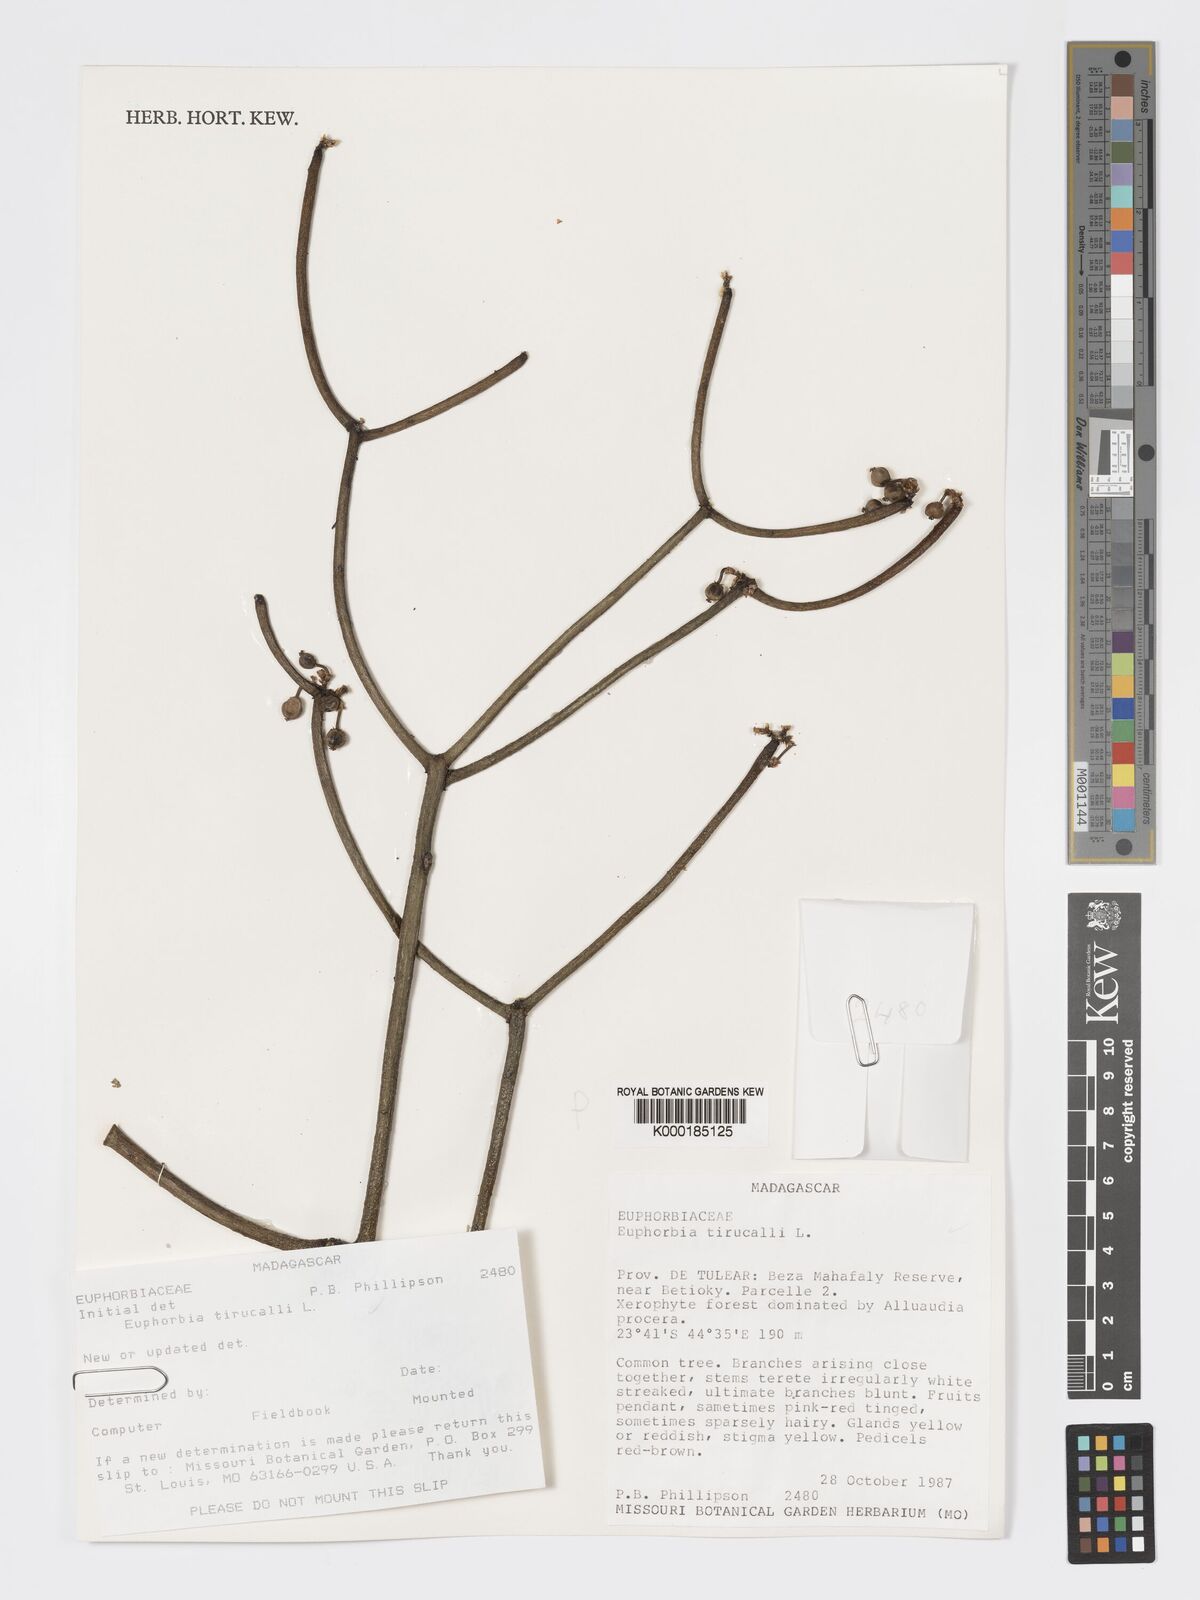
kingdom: Plantae
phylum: Tracheophyta
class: Magnoliopsida
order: Malpighiales
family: Euphorbiaceae
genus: Euphorbia
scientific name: Euphorbia tirucalli
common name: Indiantree spurge
